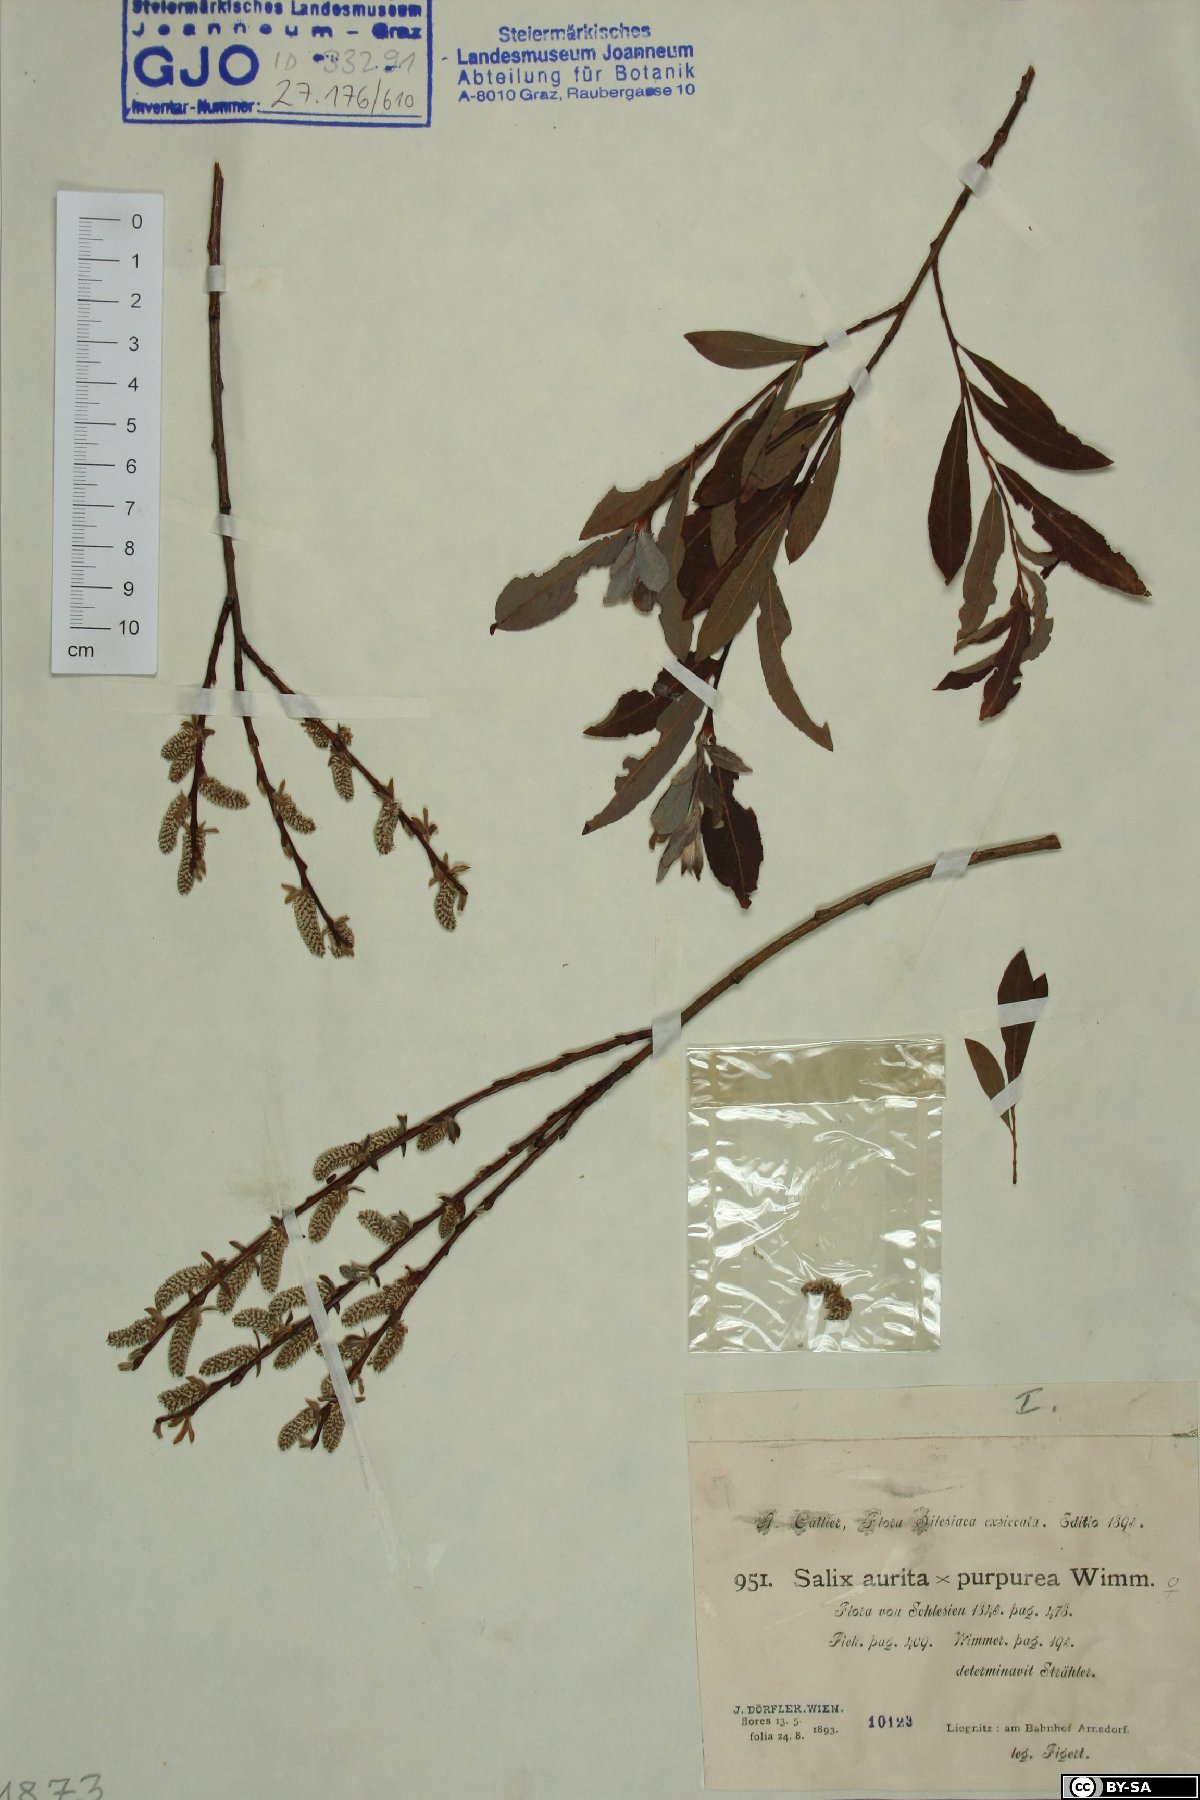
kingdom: Plantae
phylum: Tracheophyta
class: Magnoliopsida
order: Malpighiales
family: Salicaceae
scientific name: Salicaceae
